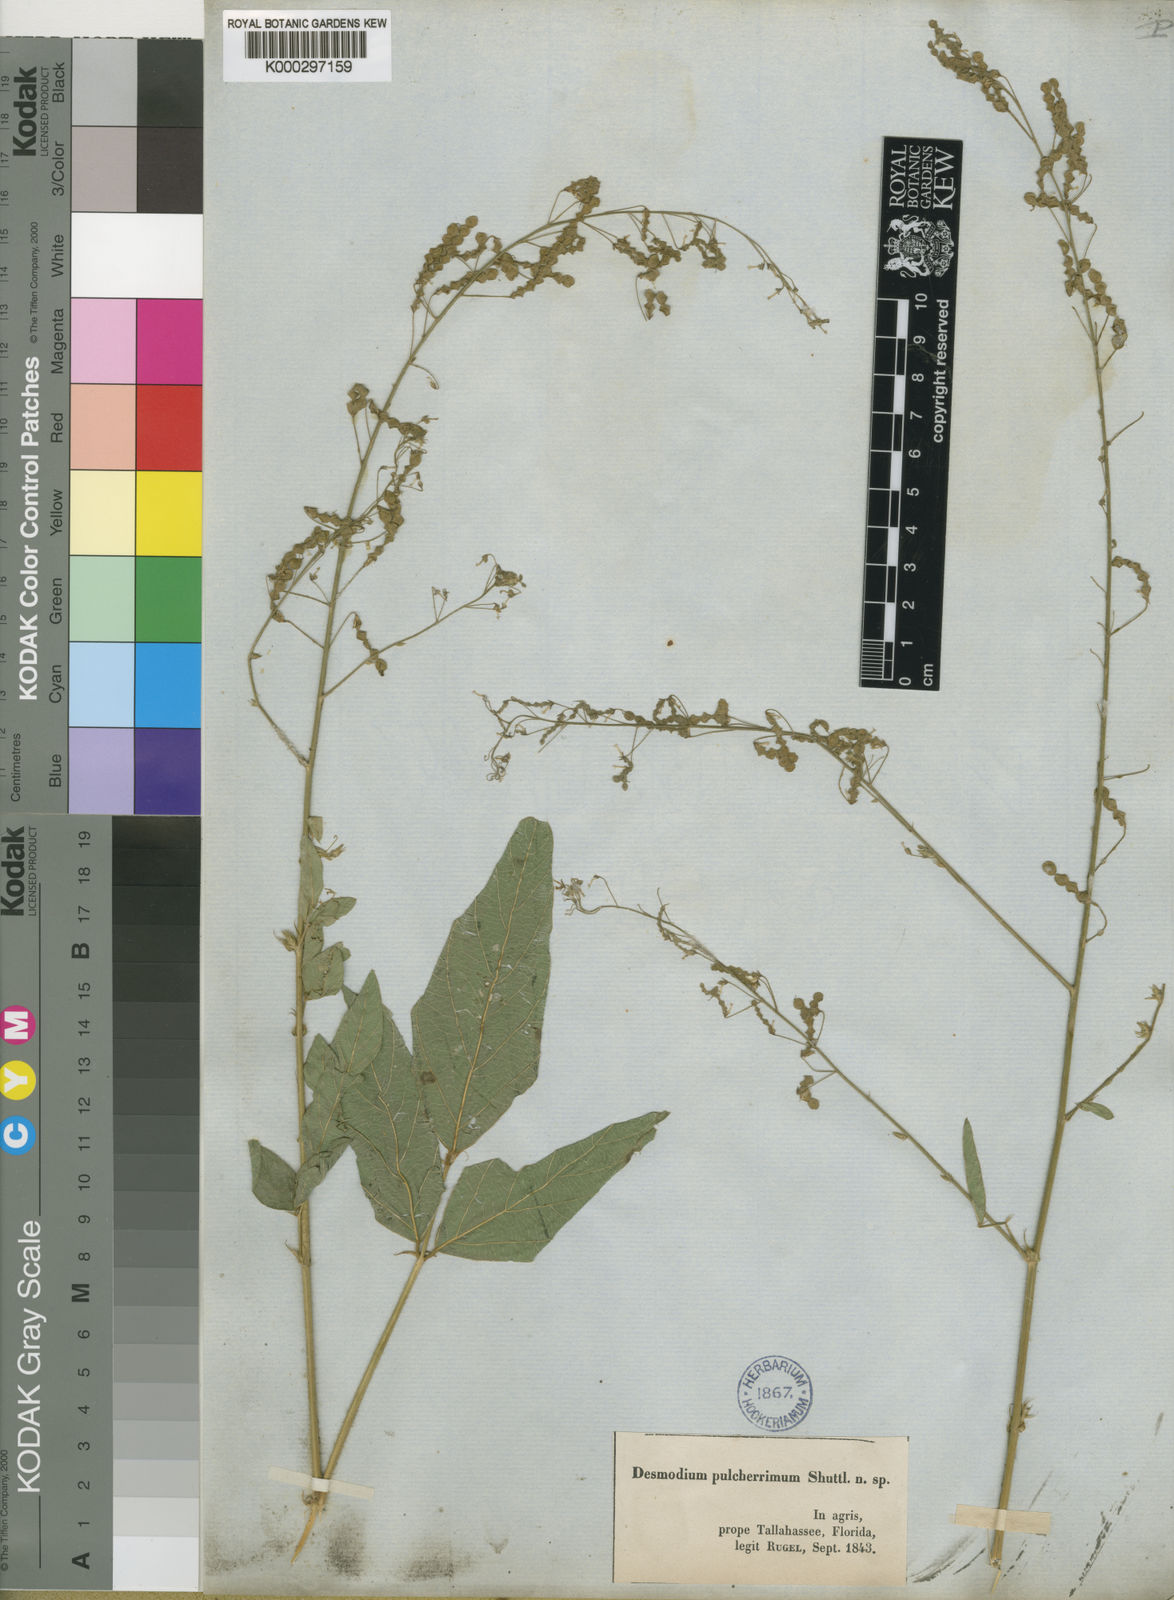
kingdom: Plantae
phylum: Tracheophyta
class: Magnoliopsida
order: Fabales
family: Fabaceae
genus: Desmodium
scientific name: Desmodium tortuosum
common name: Dixie ticktrefoil
